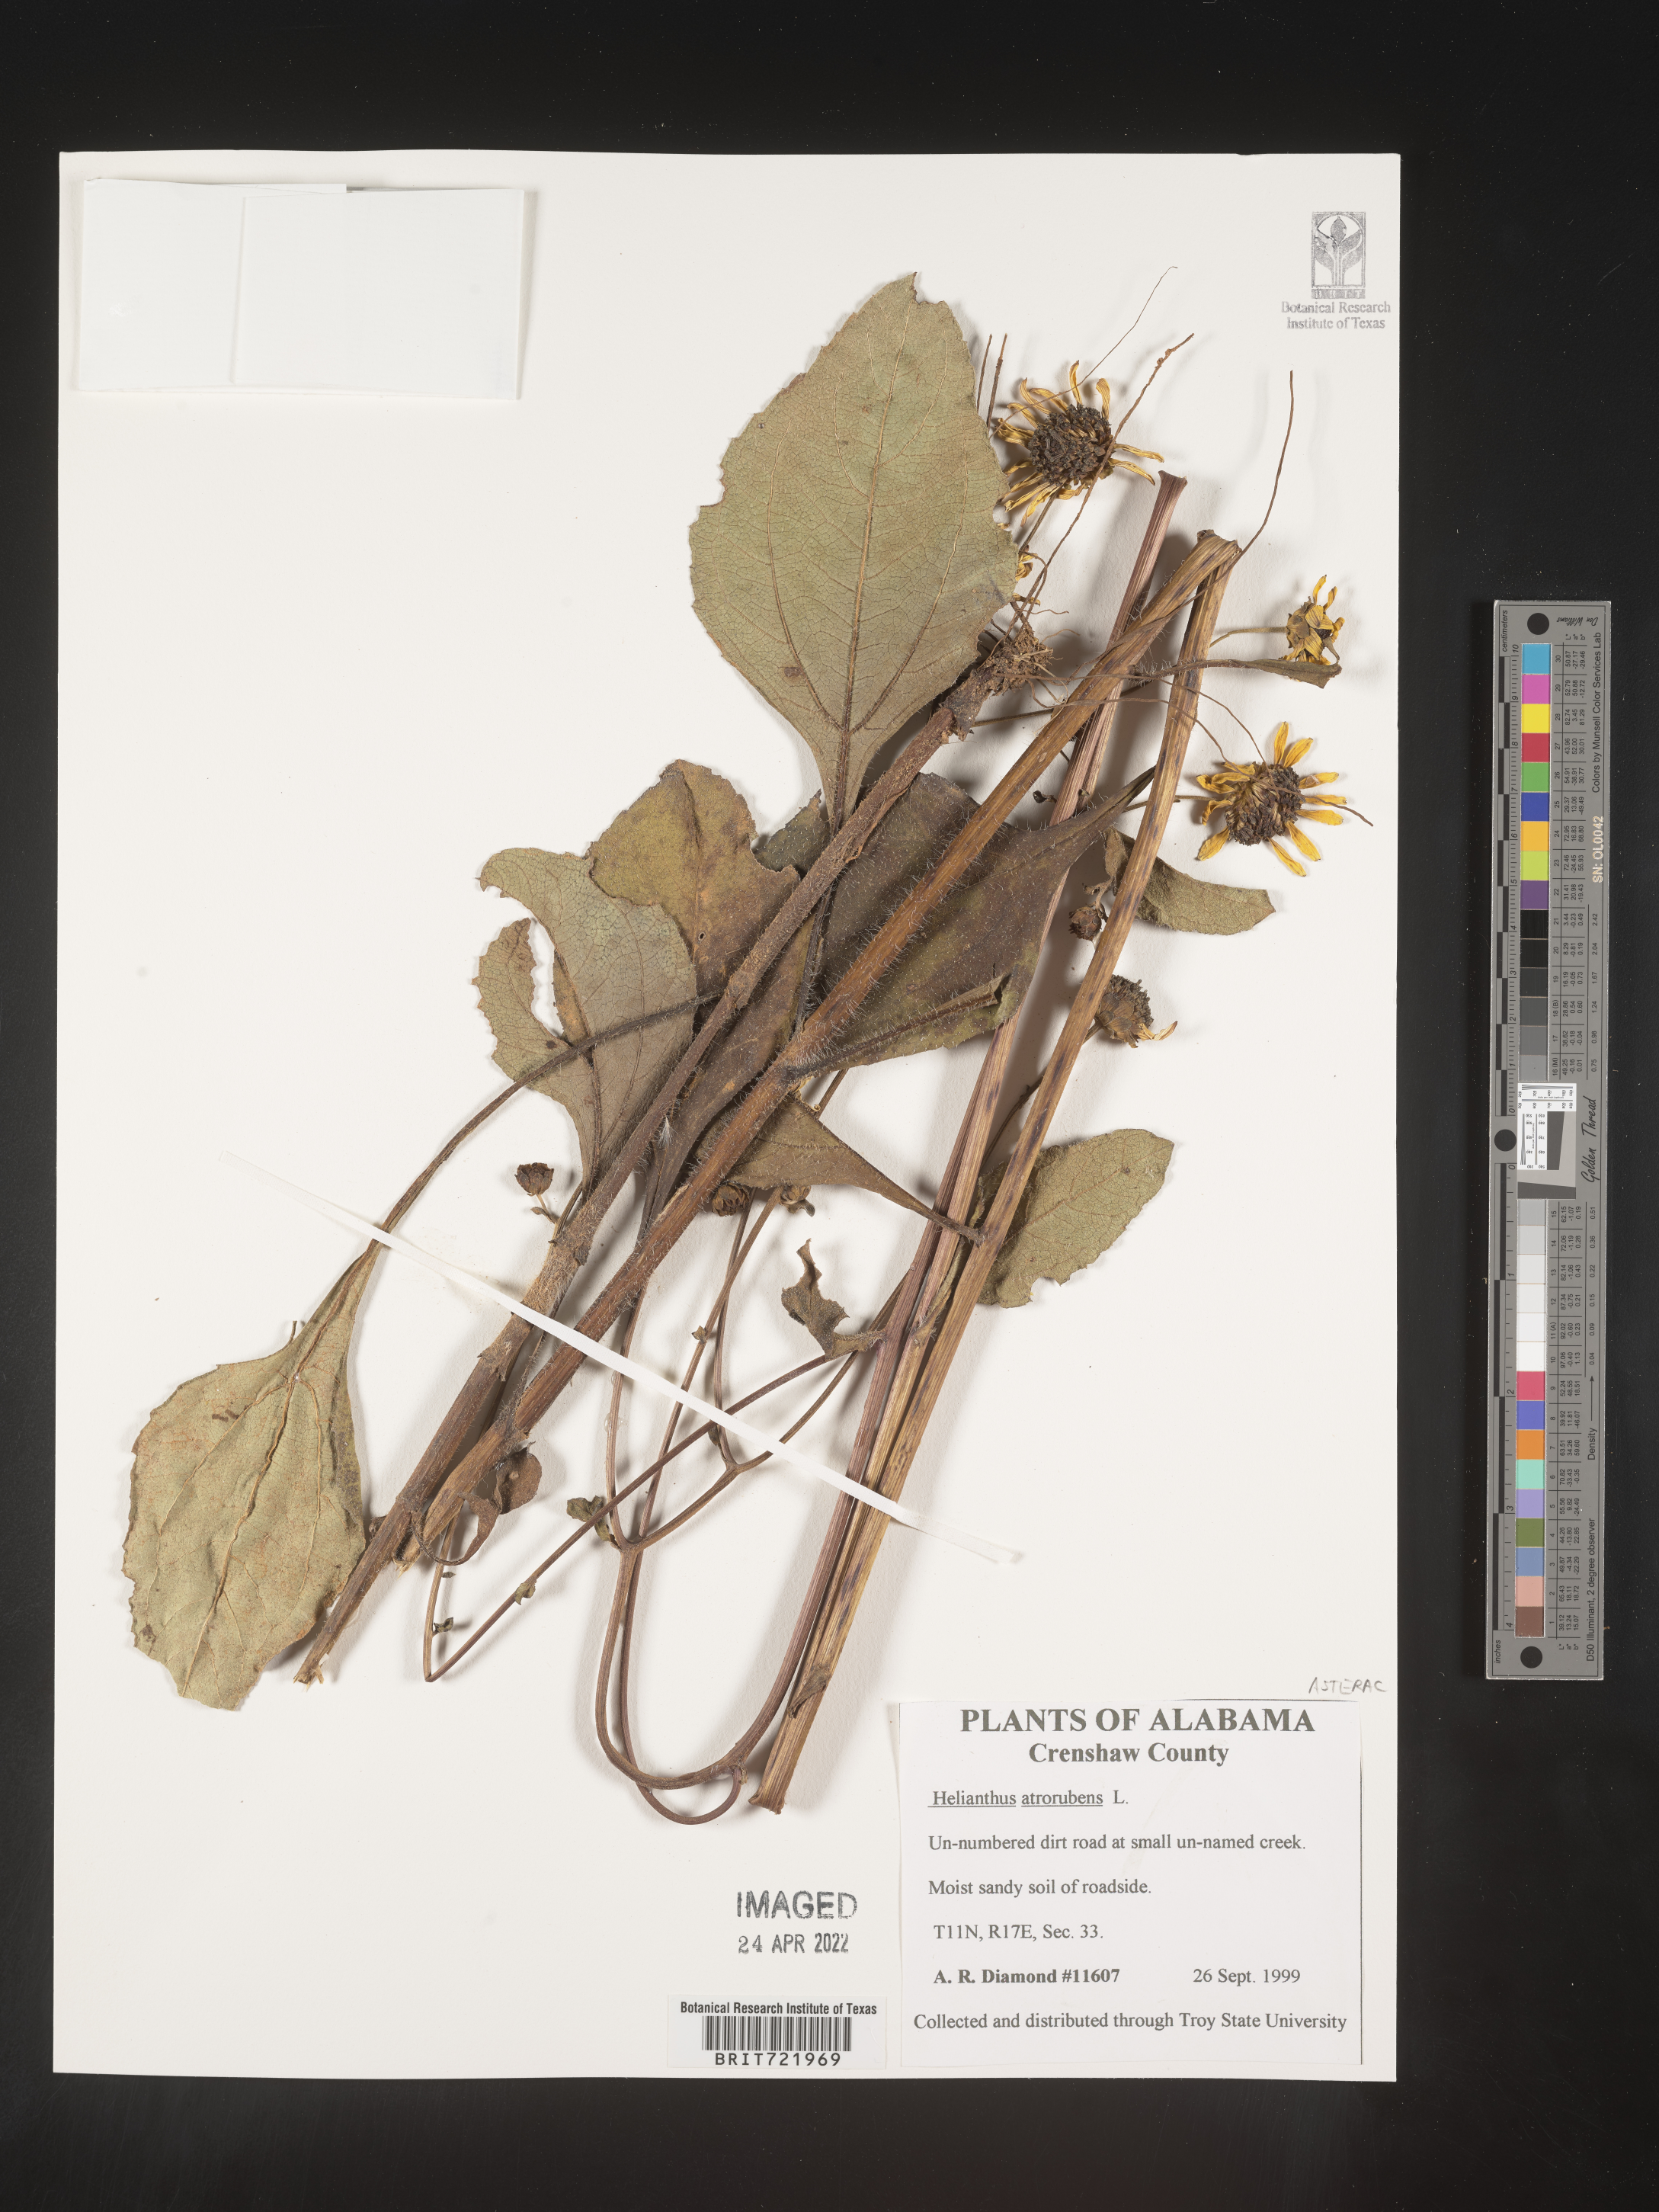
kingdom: Plantae
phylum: Tracheophyta
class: Magnoliopsida
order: Asterales
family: Asteraceae
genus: Helianthus
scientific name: Helianthus atrorubens
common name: Dark-eyed sunflower
